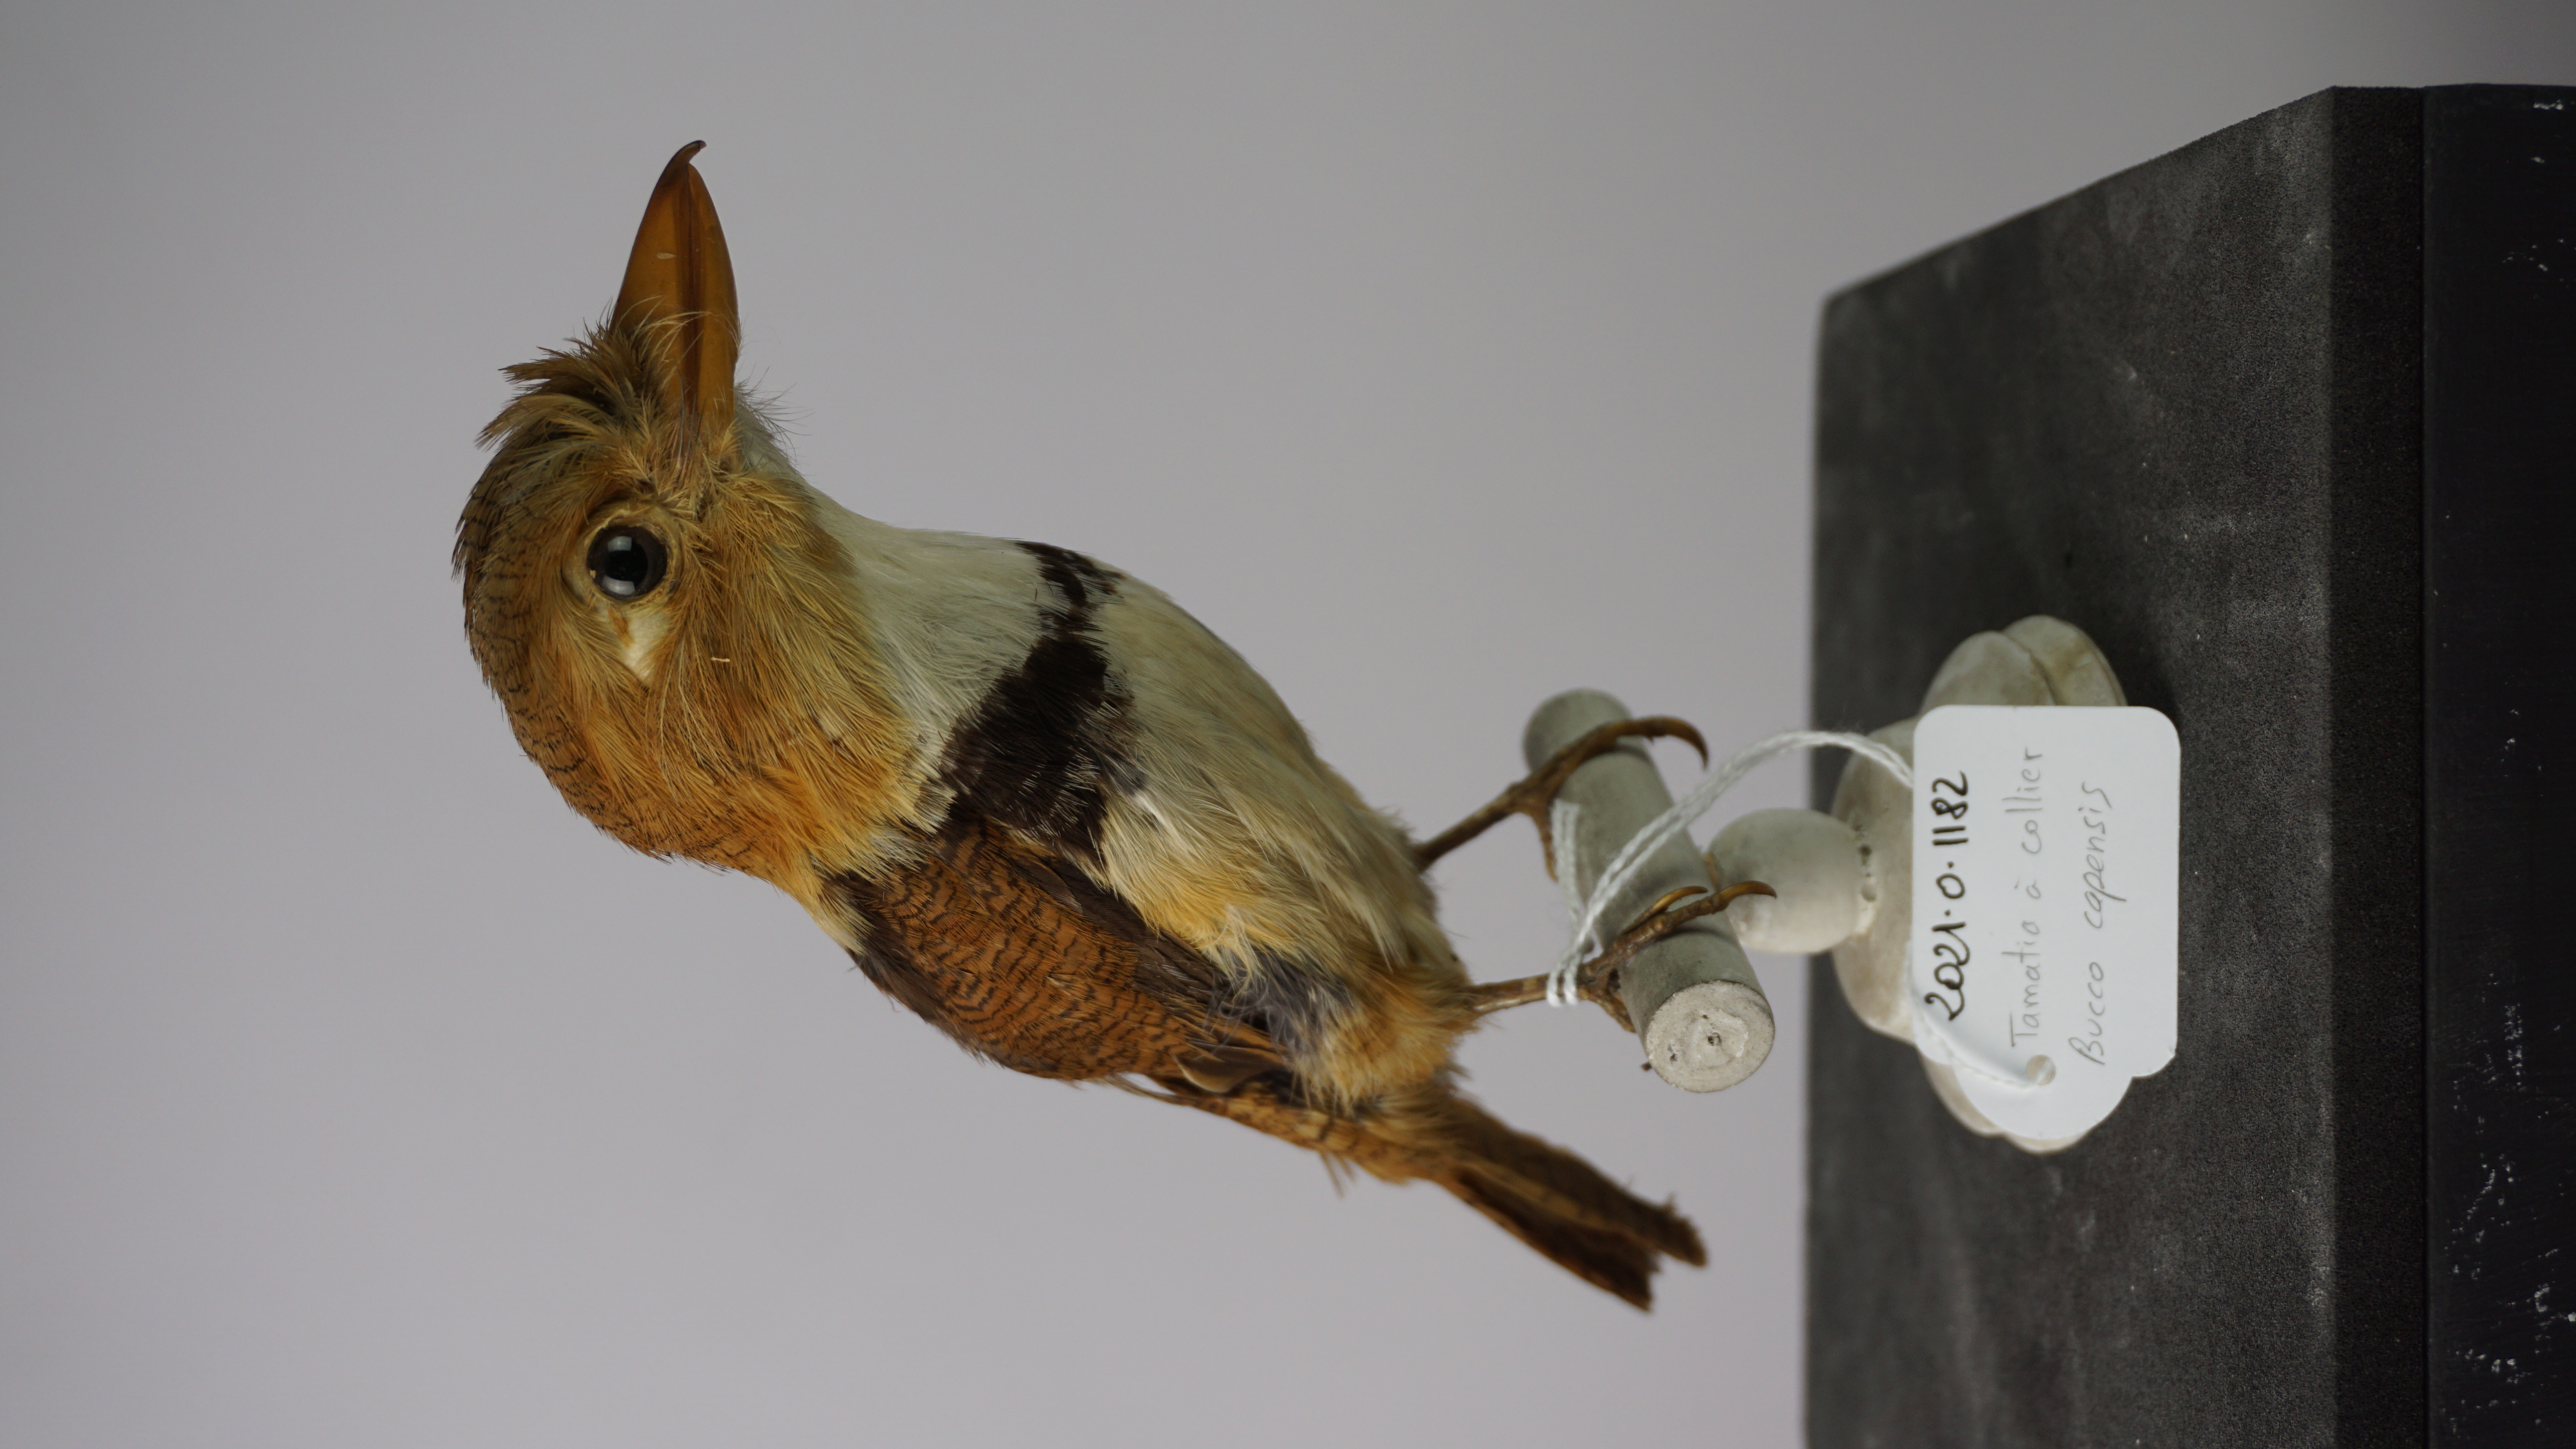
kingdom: Animalia
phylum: Chordata
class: Aves
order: Piciformes
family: Bucconidae
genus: Bucco
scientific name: Bucco capensis
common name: Collared puffbird
